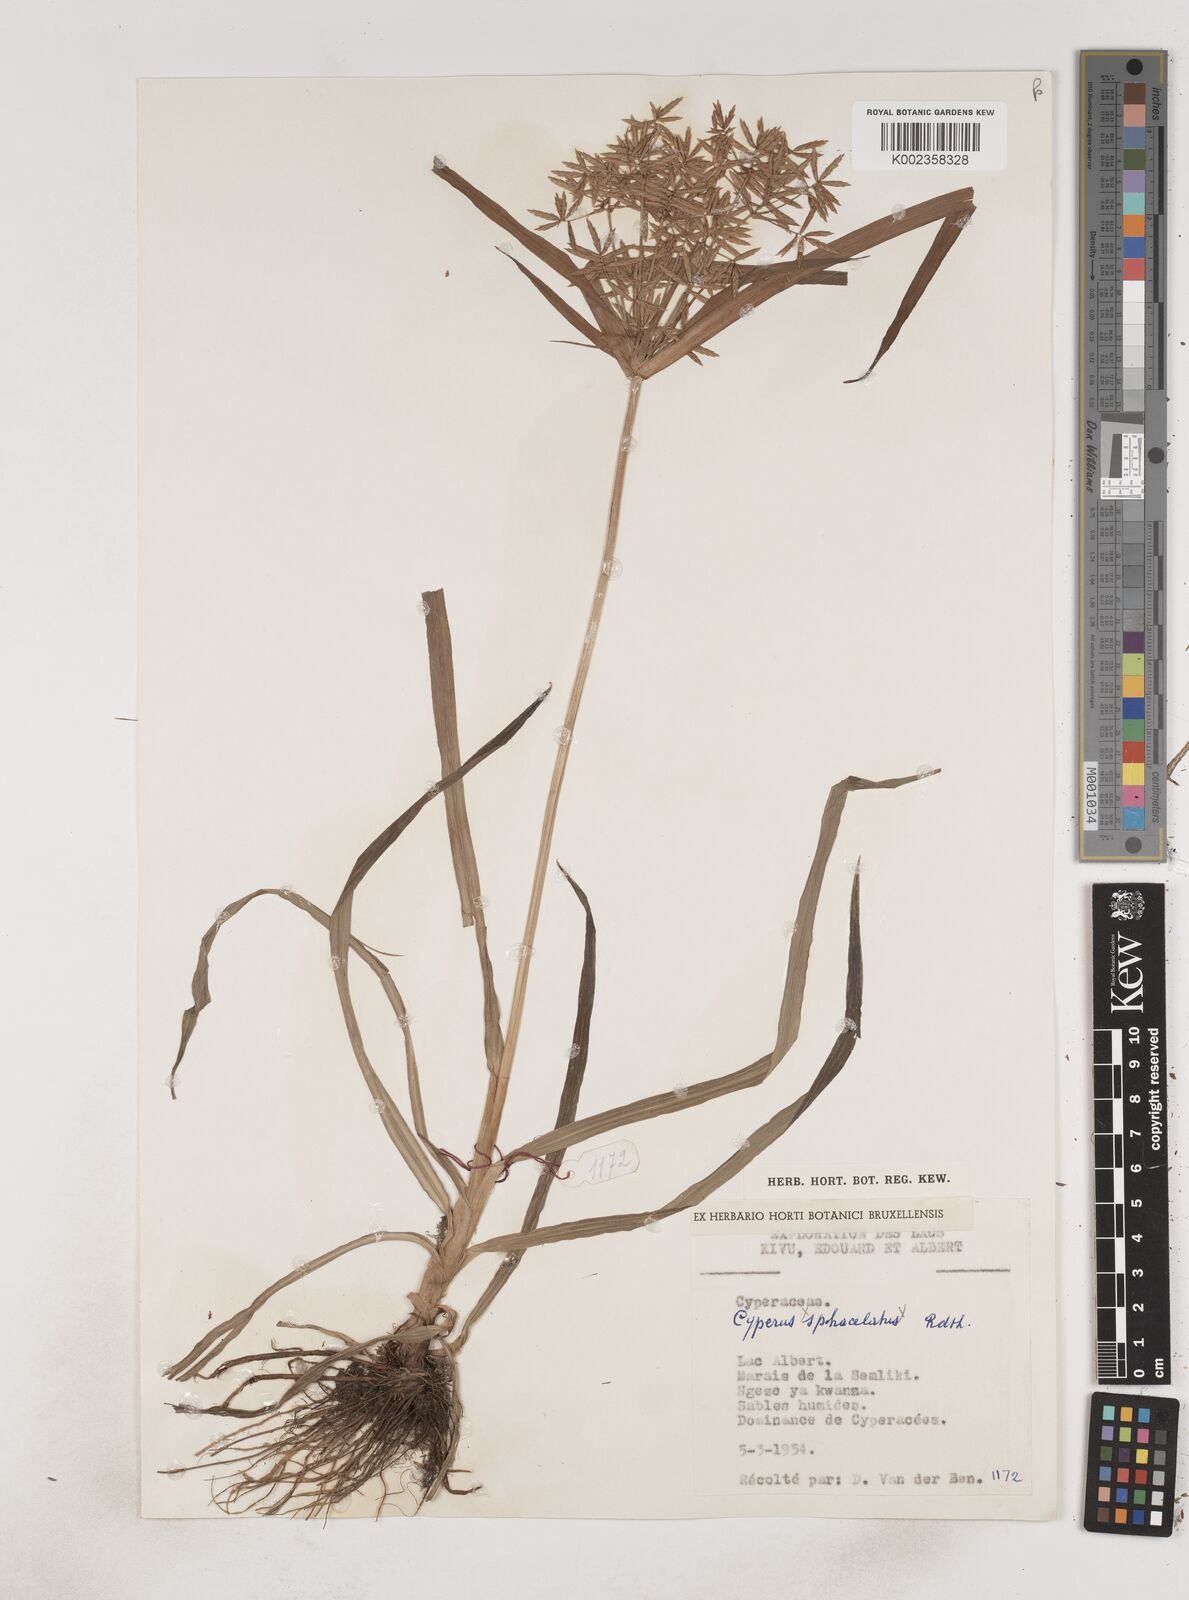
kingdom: Plantae
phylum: Tracheophyta
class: Liliopsida
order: Poales
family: Cyperaceae
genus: Cyperus
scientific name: Cyperus tuberosus
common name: Nut grass
